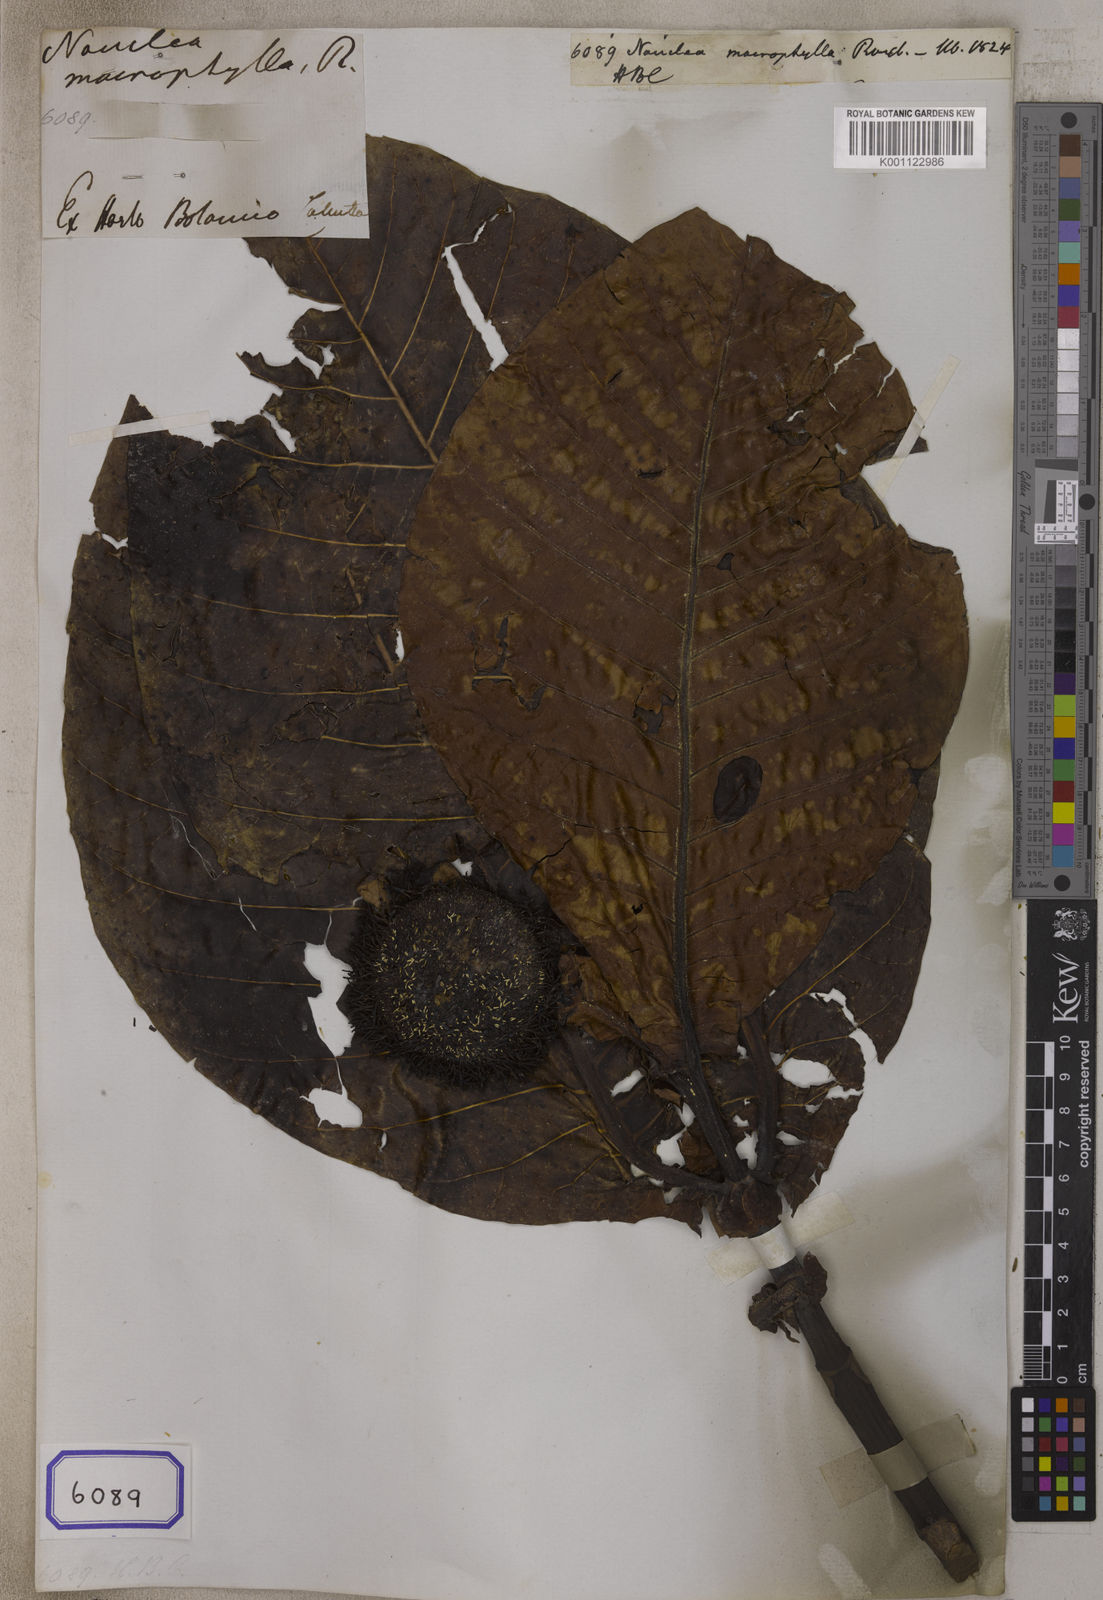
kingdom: Plantae
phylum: Tracheophyta
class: Magnoliopsida
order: Gentianales
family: Rubiaceae
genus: Neolamarckia
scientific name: Neolamarckia macrophylla
